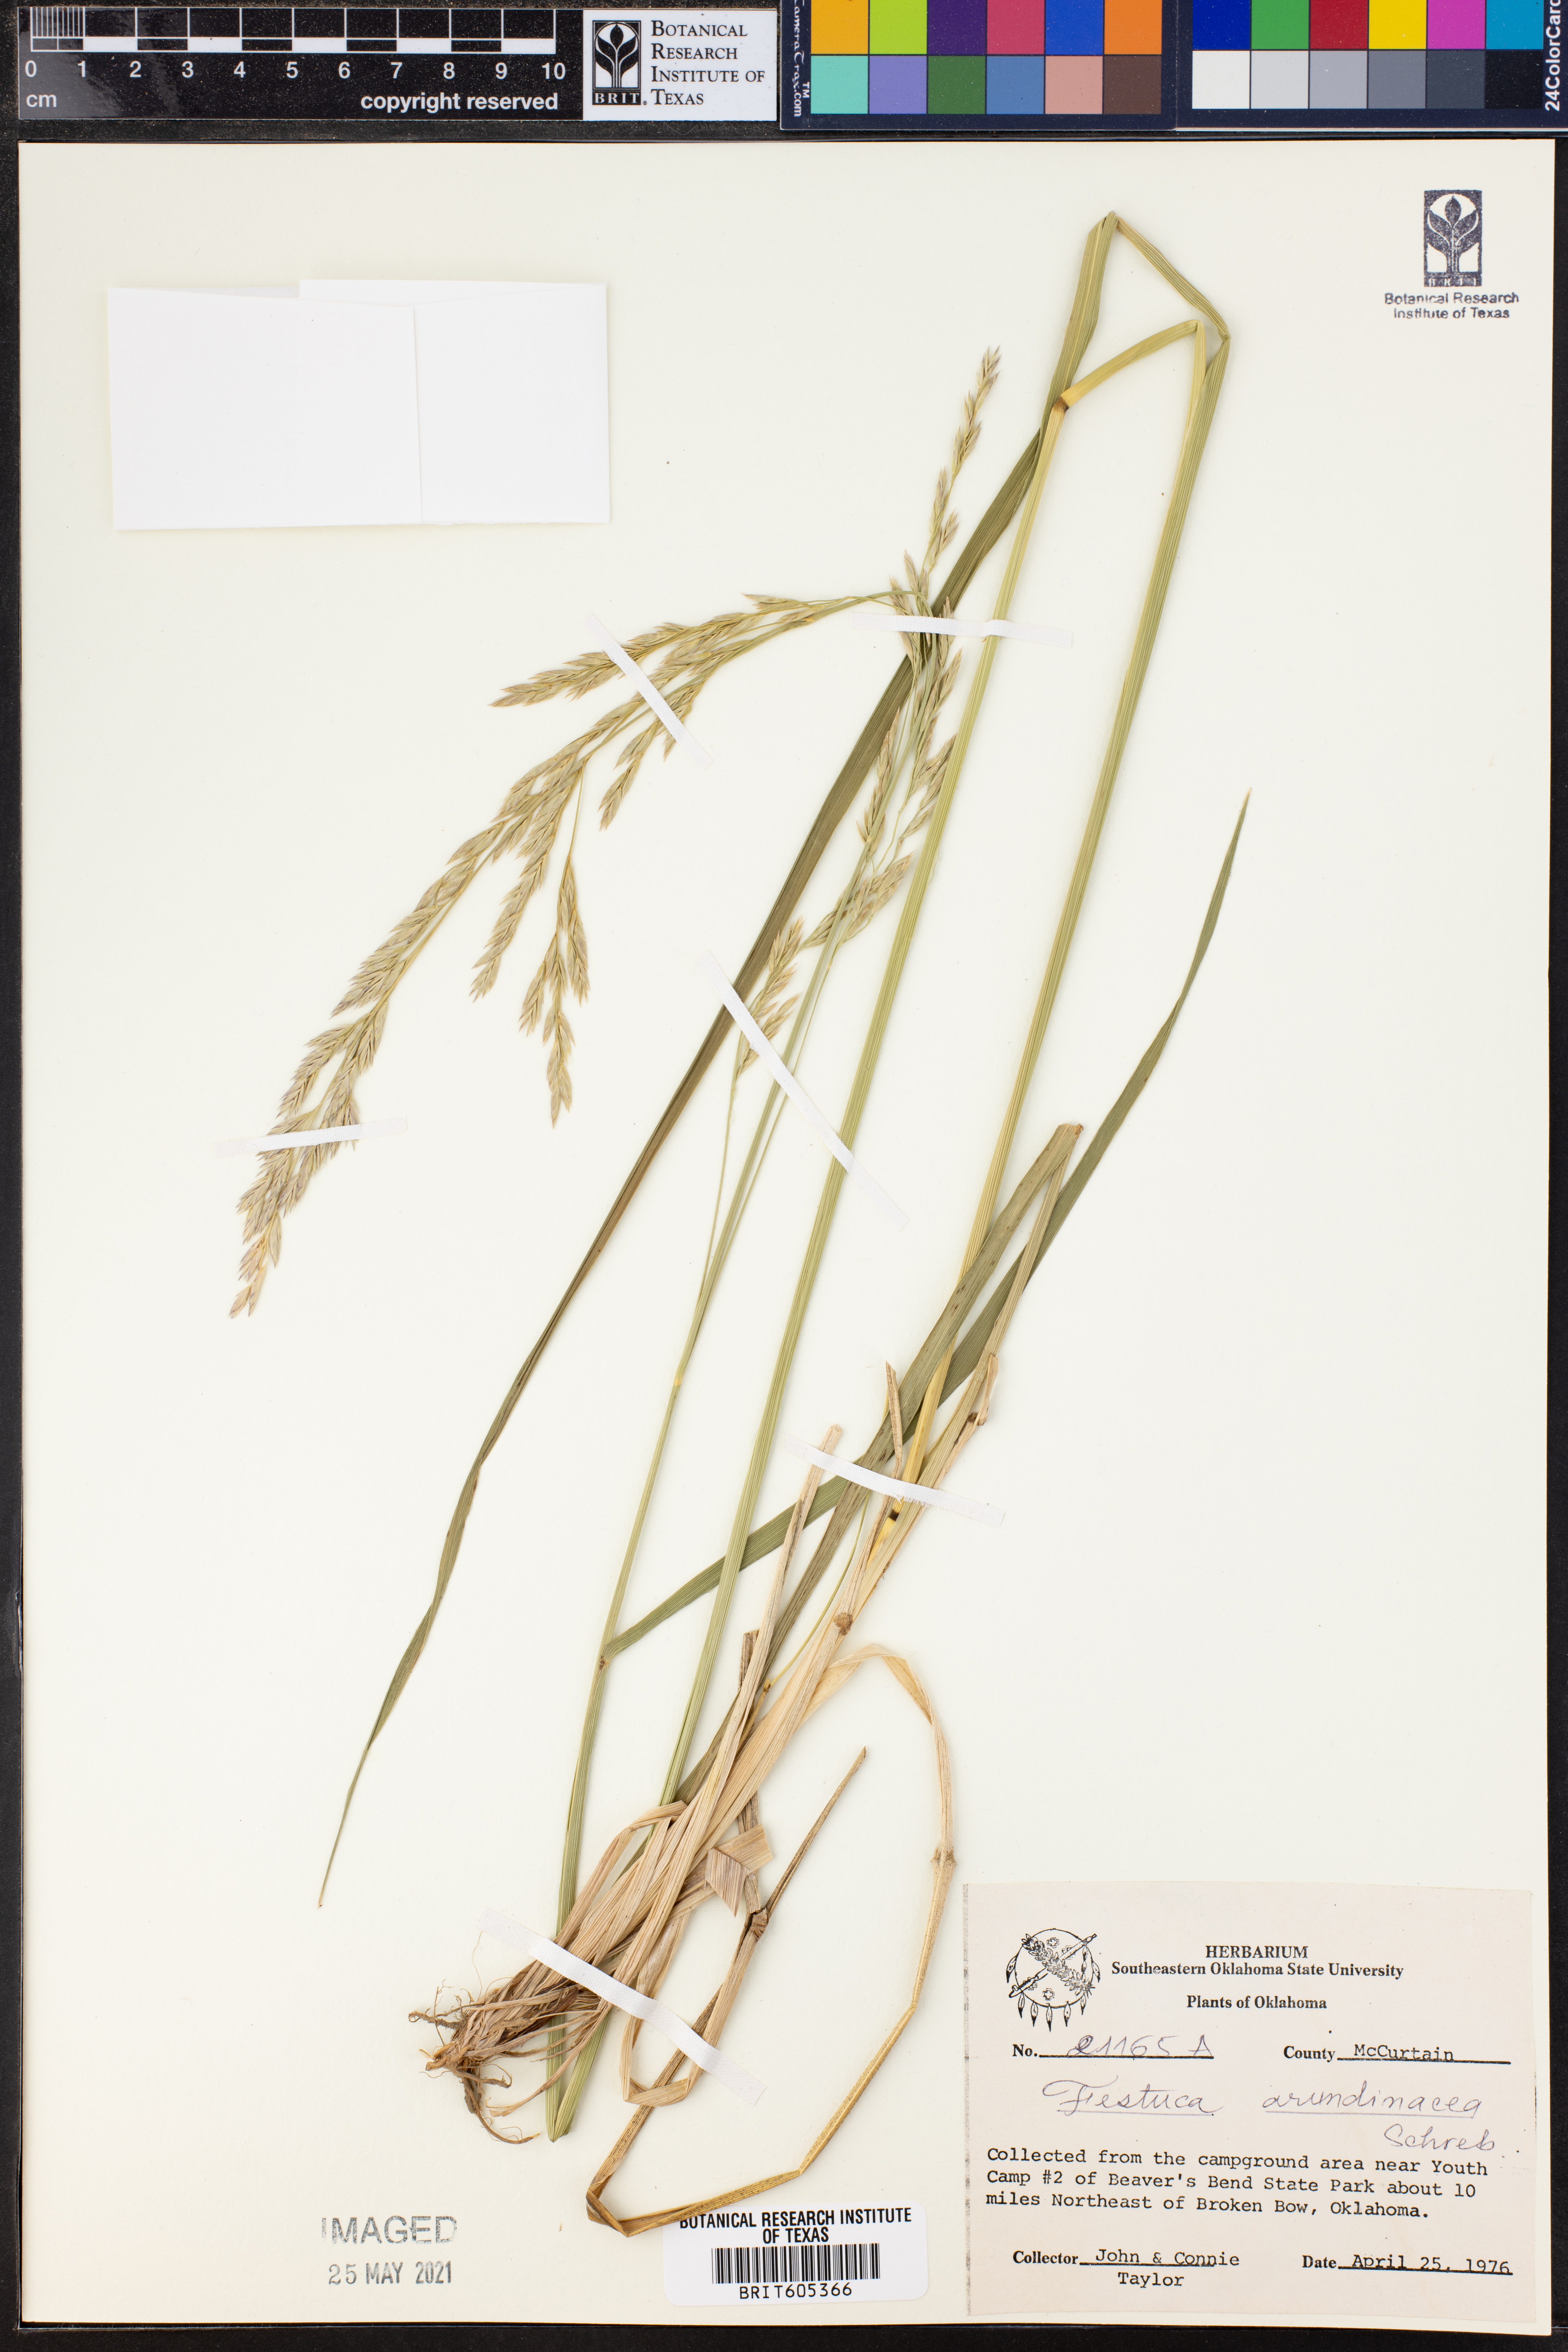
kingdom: Plantae
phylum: Tracheophyta
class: Liliopsida
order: Poales
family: Poaceae
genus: Lolium
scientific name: Lolium arundinaceum
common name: Reed fescue
